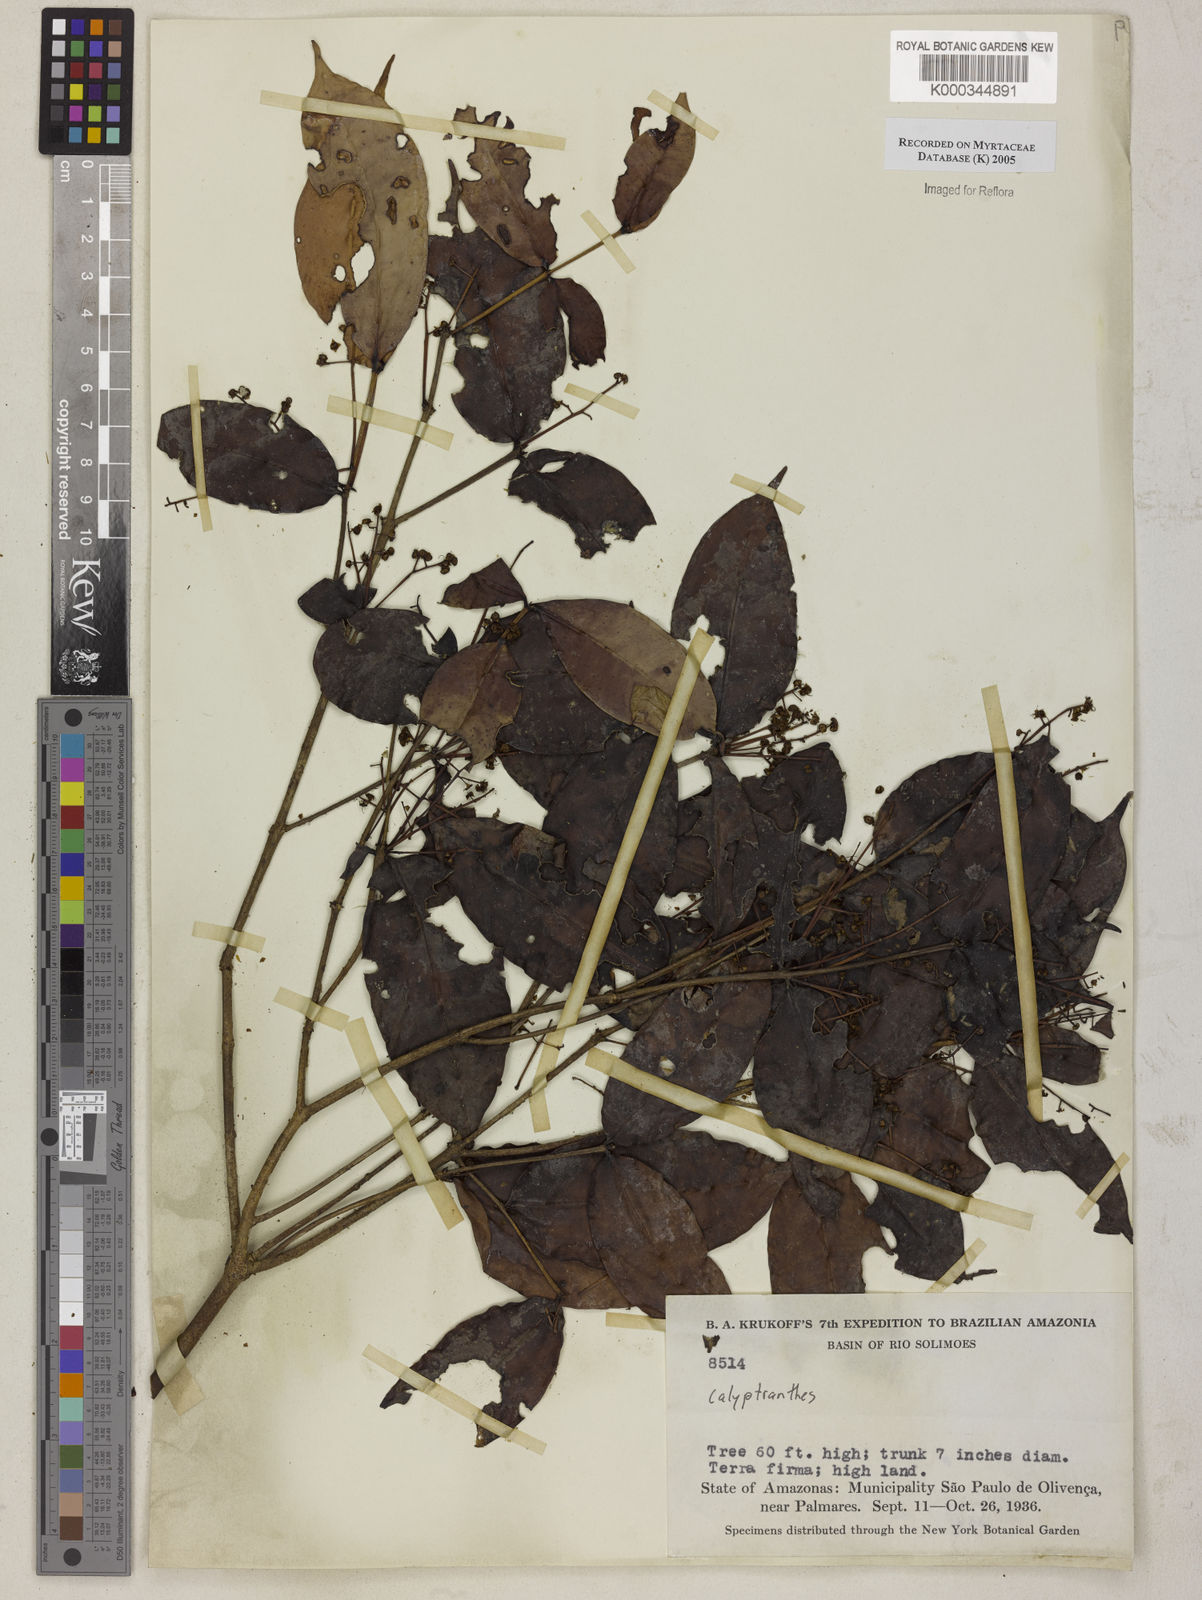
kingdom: Plantae
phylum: Tracheophyta
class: Magnoliopsida
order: Myrtales
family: Myrtaceae
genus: Myrcia
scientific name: Myrcia
